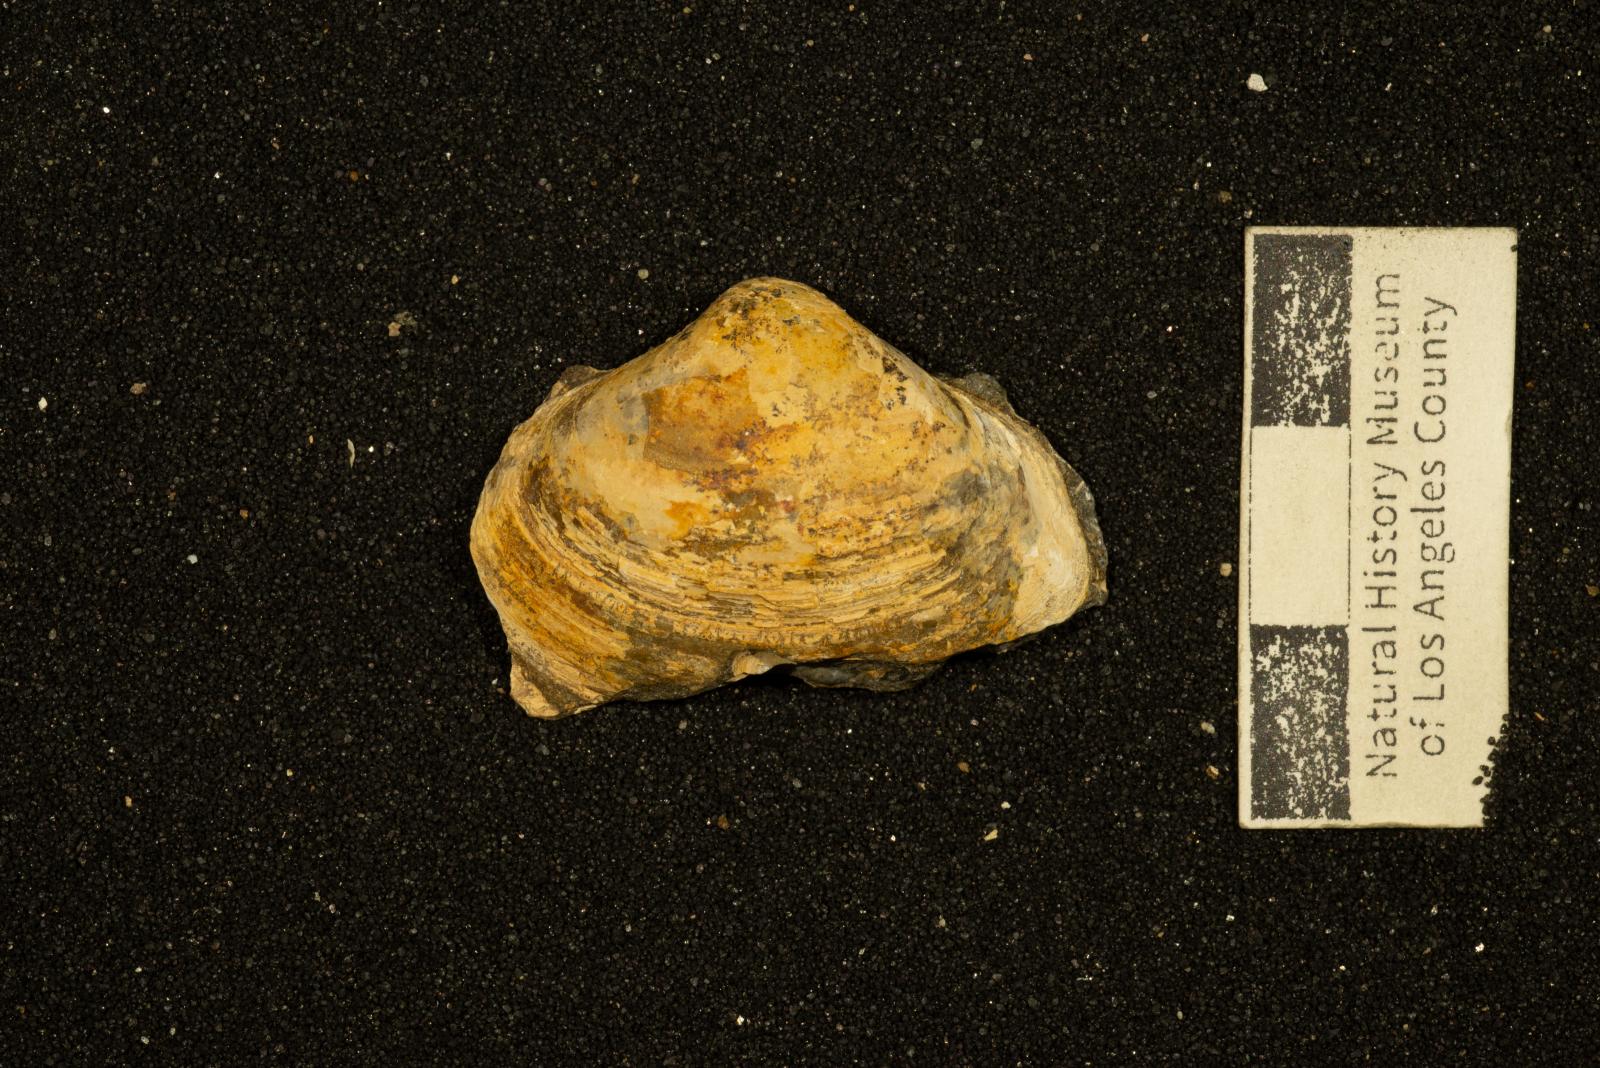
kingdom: Animalia
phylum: Mollusca
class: Bivalvia
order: Venerida
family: Mactridae
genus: Cymbophora
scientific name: Cymbophora Mactra stantoni
